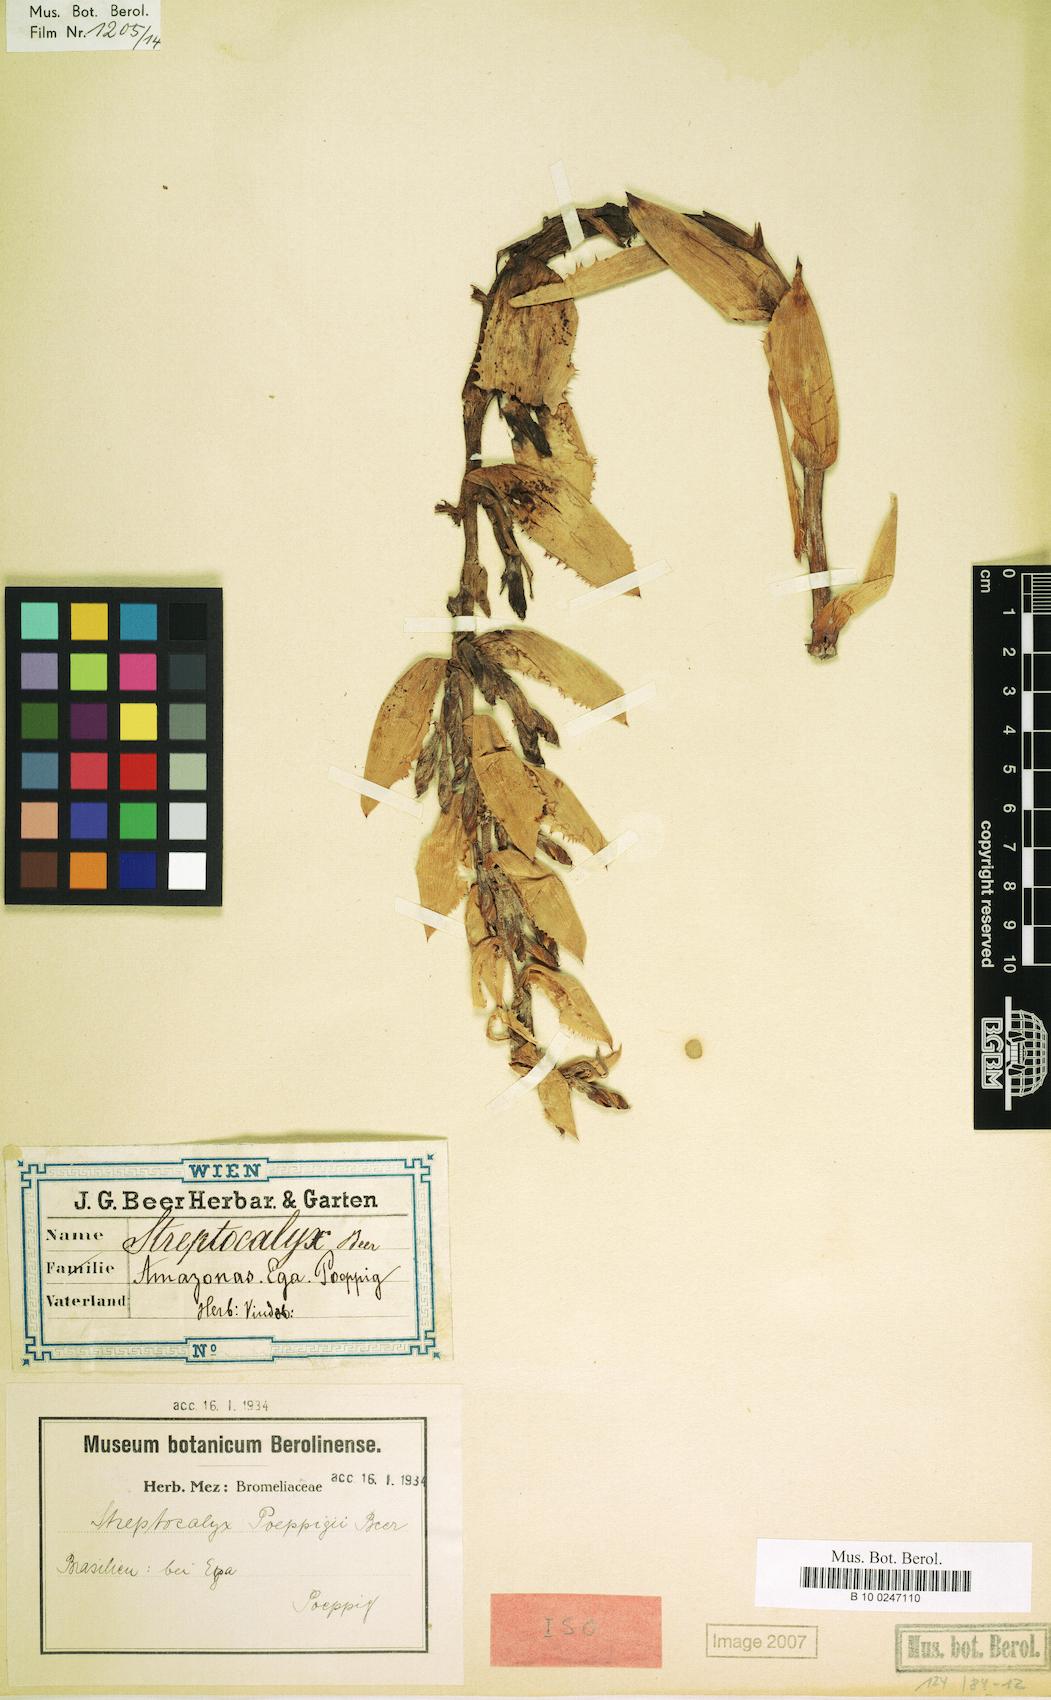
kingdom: Plantae
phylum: Tracheophyta
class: Liliopsida
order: Poales
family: Bromeliaceae
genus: Aechmea
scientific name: Aechmea vallerandii
